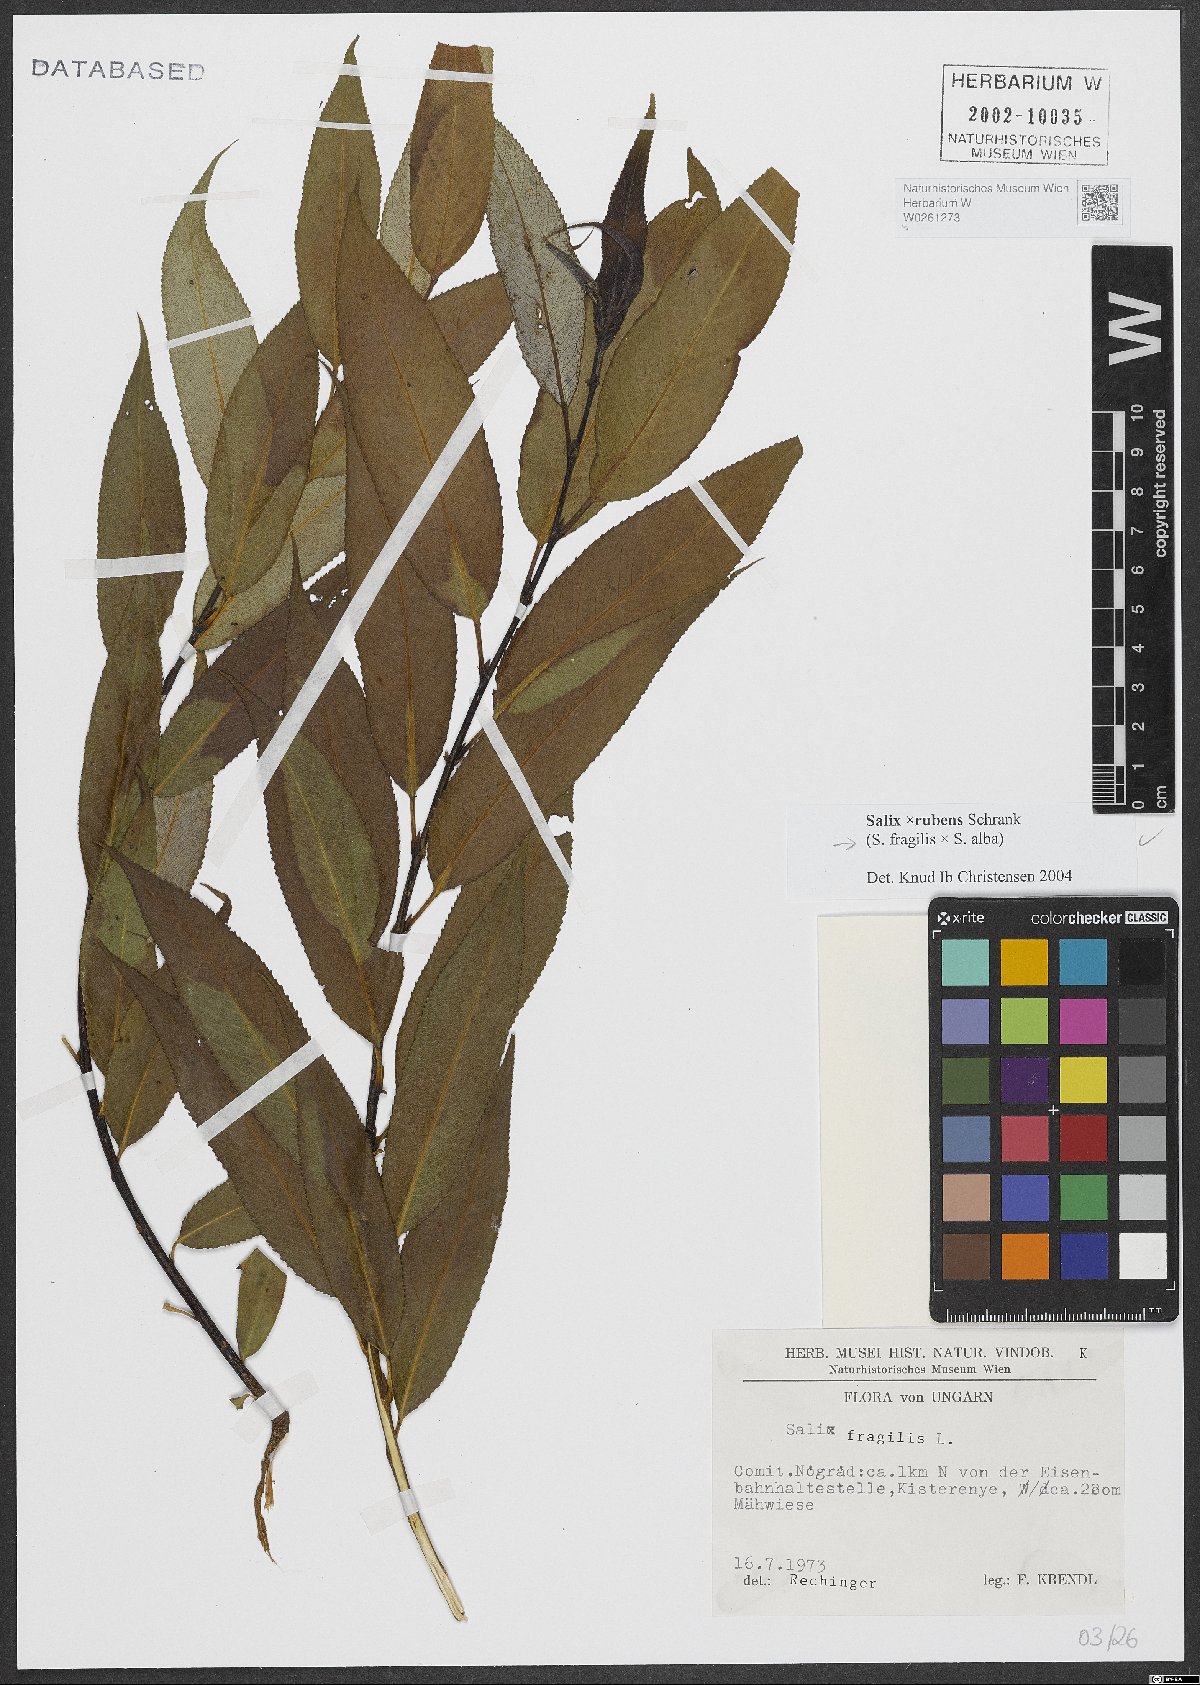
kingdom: Plantae
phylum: Tracheophyta
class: Magnoliopsida
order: Malpighiales
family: Salicaceae
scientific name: Salicaceae
